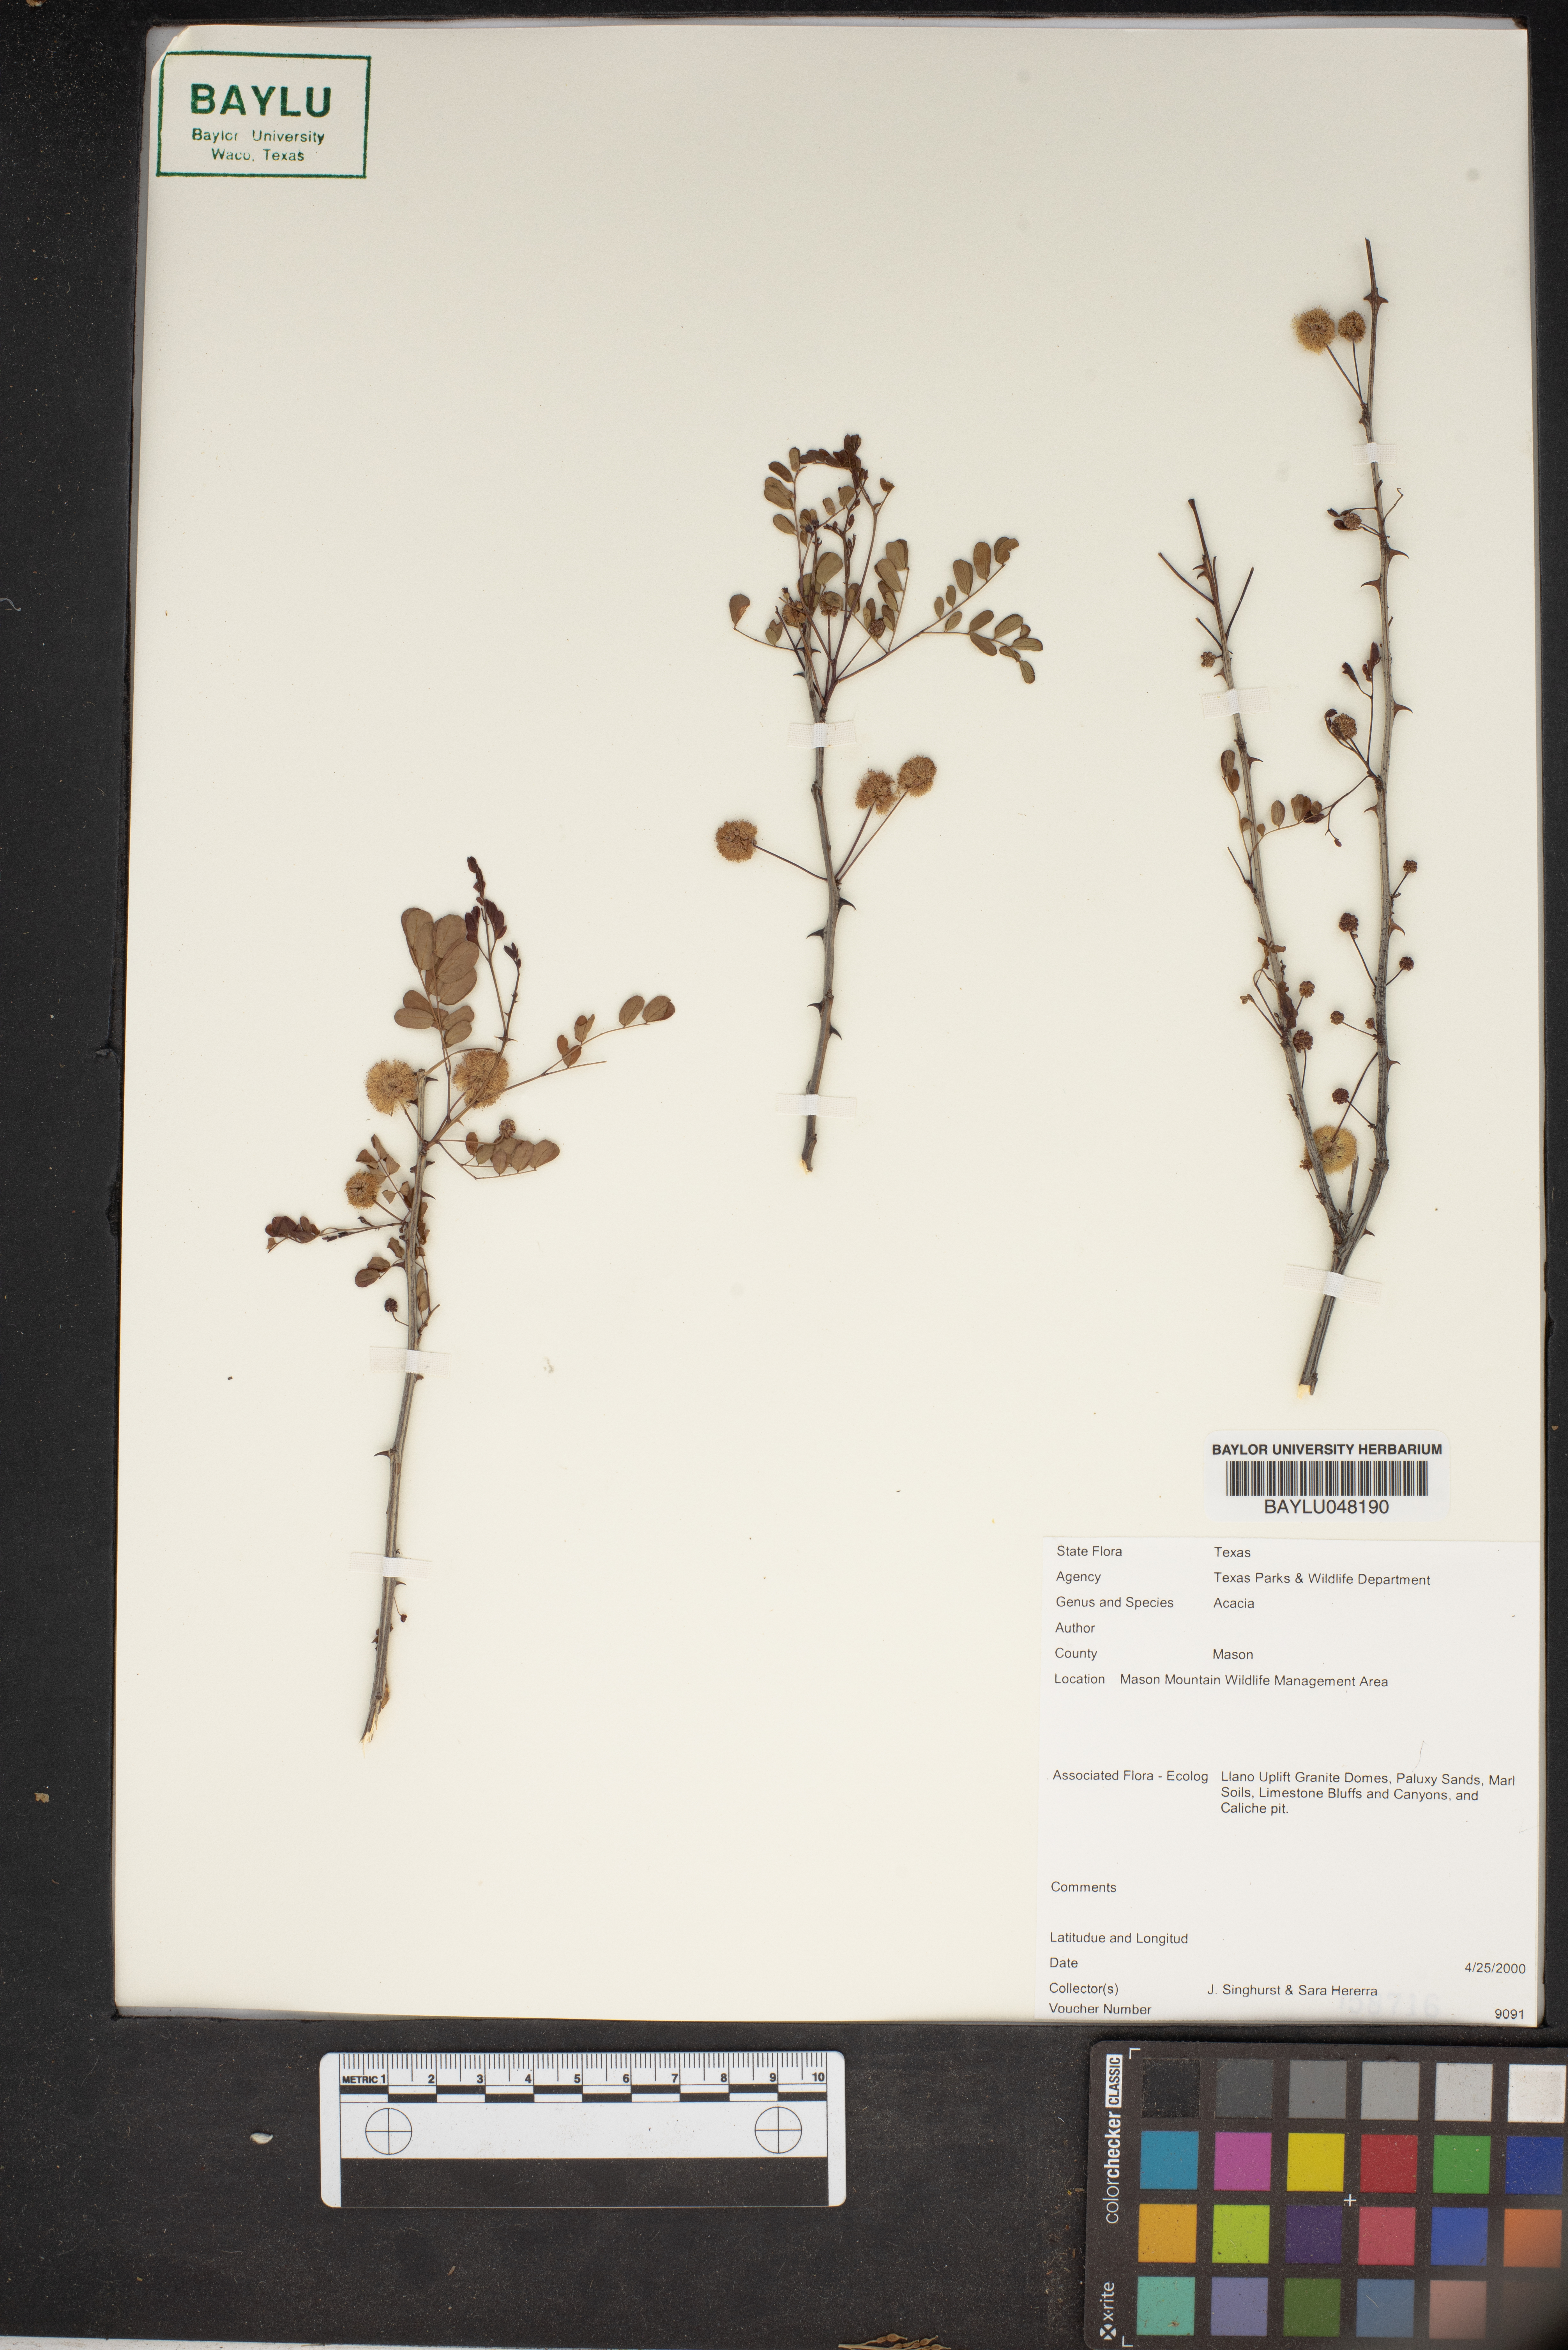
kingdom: Plantae
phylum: Tracheophyta
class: Magnoliopsida
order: Fabales
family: Fabaceae
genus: Acacia
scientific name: Acacia
